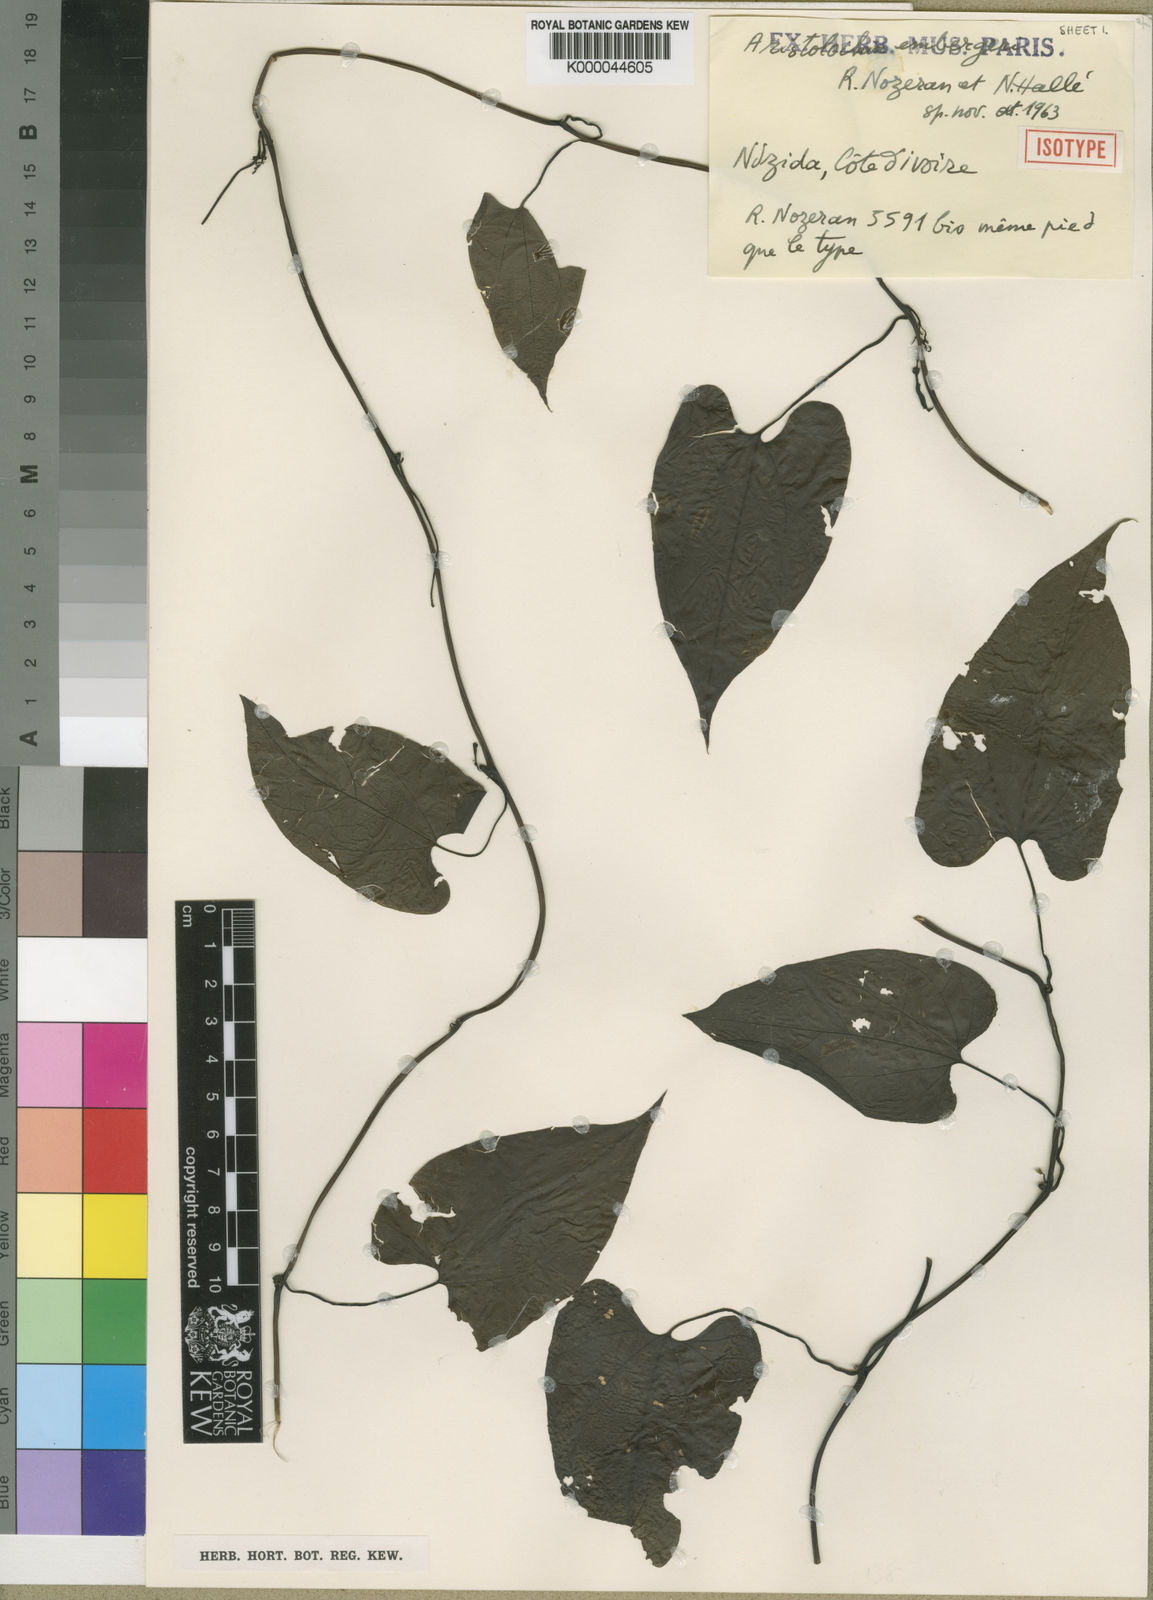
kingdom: Plantae
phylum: Tracheophyta
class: Magnoliopsida
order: Piperales
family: Aristolochiaceae
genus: Aristolochia
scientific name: Aristolochia
